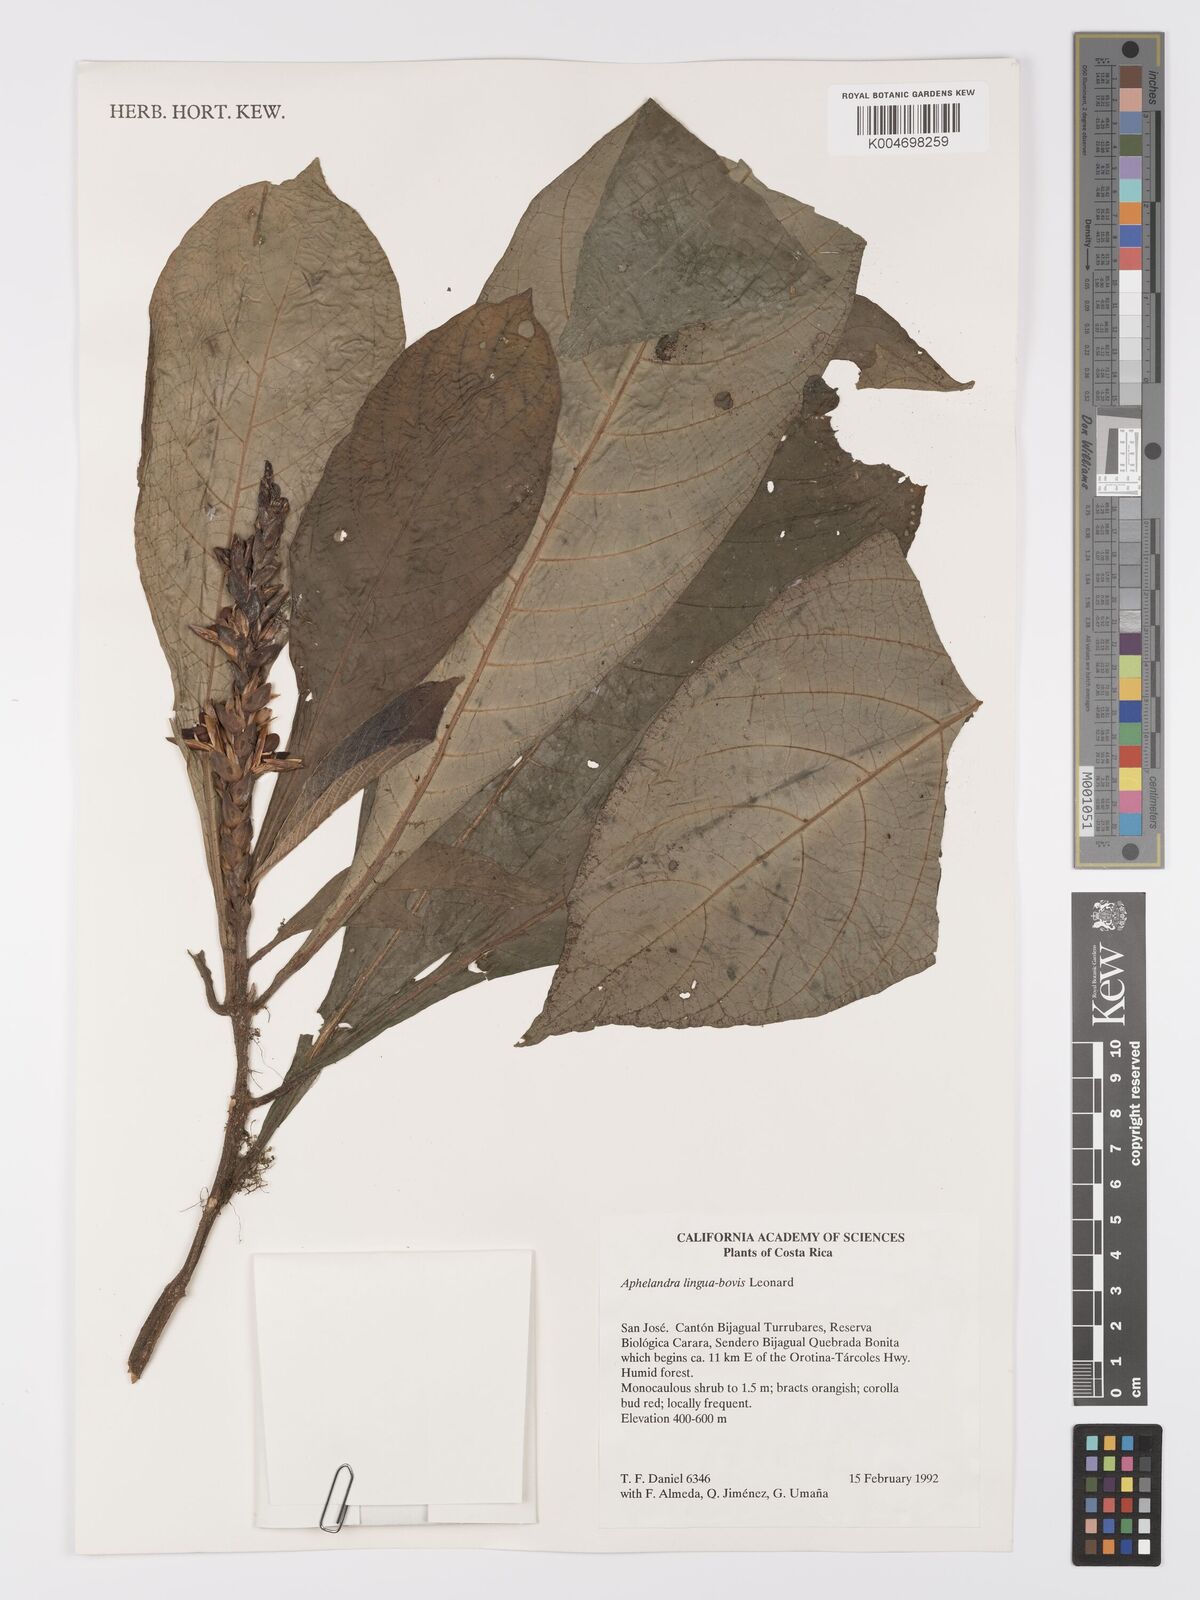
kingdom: Plantae
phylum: Tracheophyta
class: Magnoliopsida
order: Lamiales
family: Acanthaceae
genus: Aphelandra
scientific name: Aphelandra lingua-bovis
